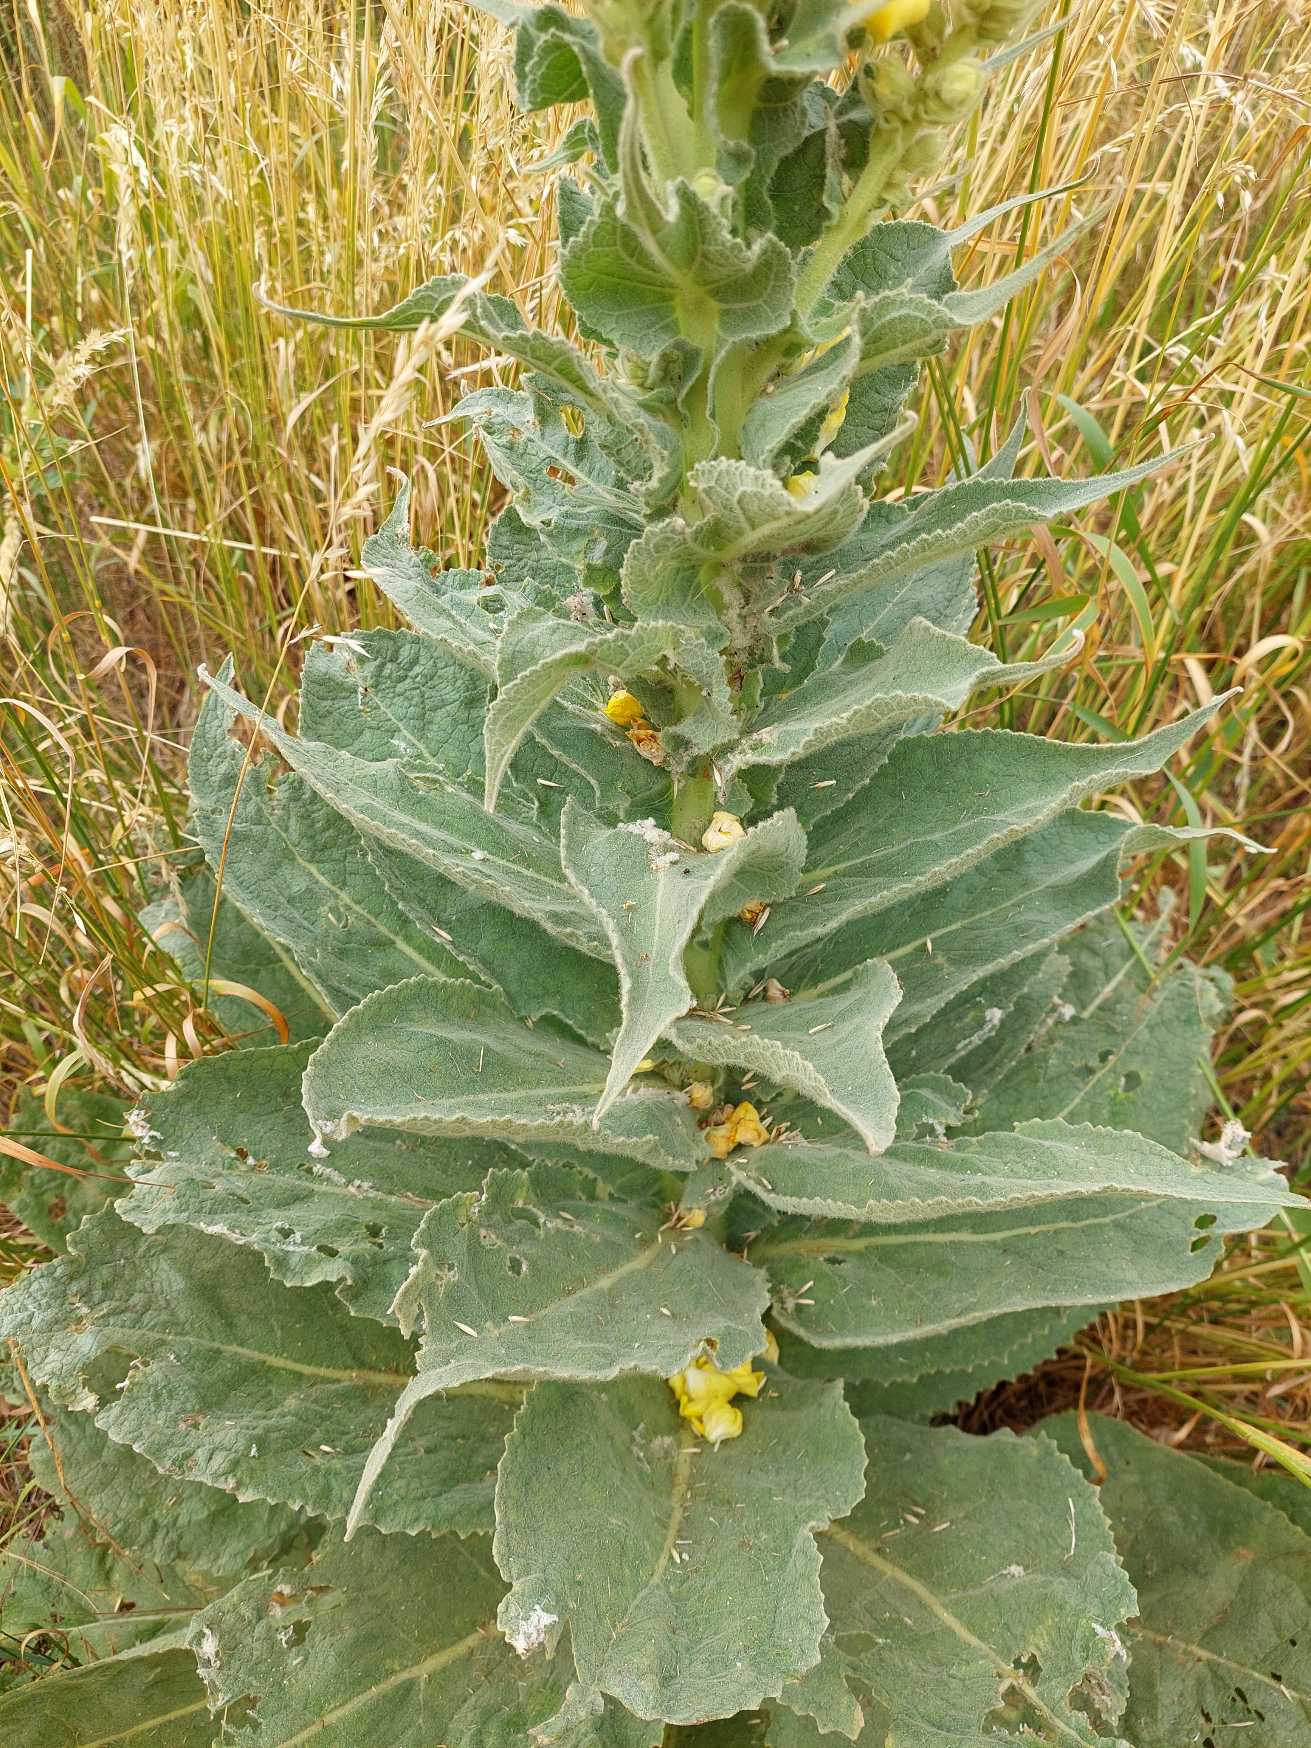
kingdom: Plantae
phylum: Tracheophyta
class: Magnoliopsida
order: Lamiales
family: Scrophulariaceae
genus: Verbascum
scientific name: Verbascum densiflorum
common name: Uldbladet kongelys
